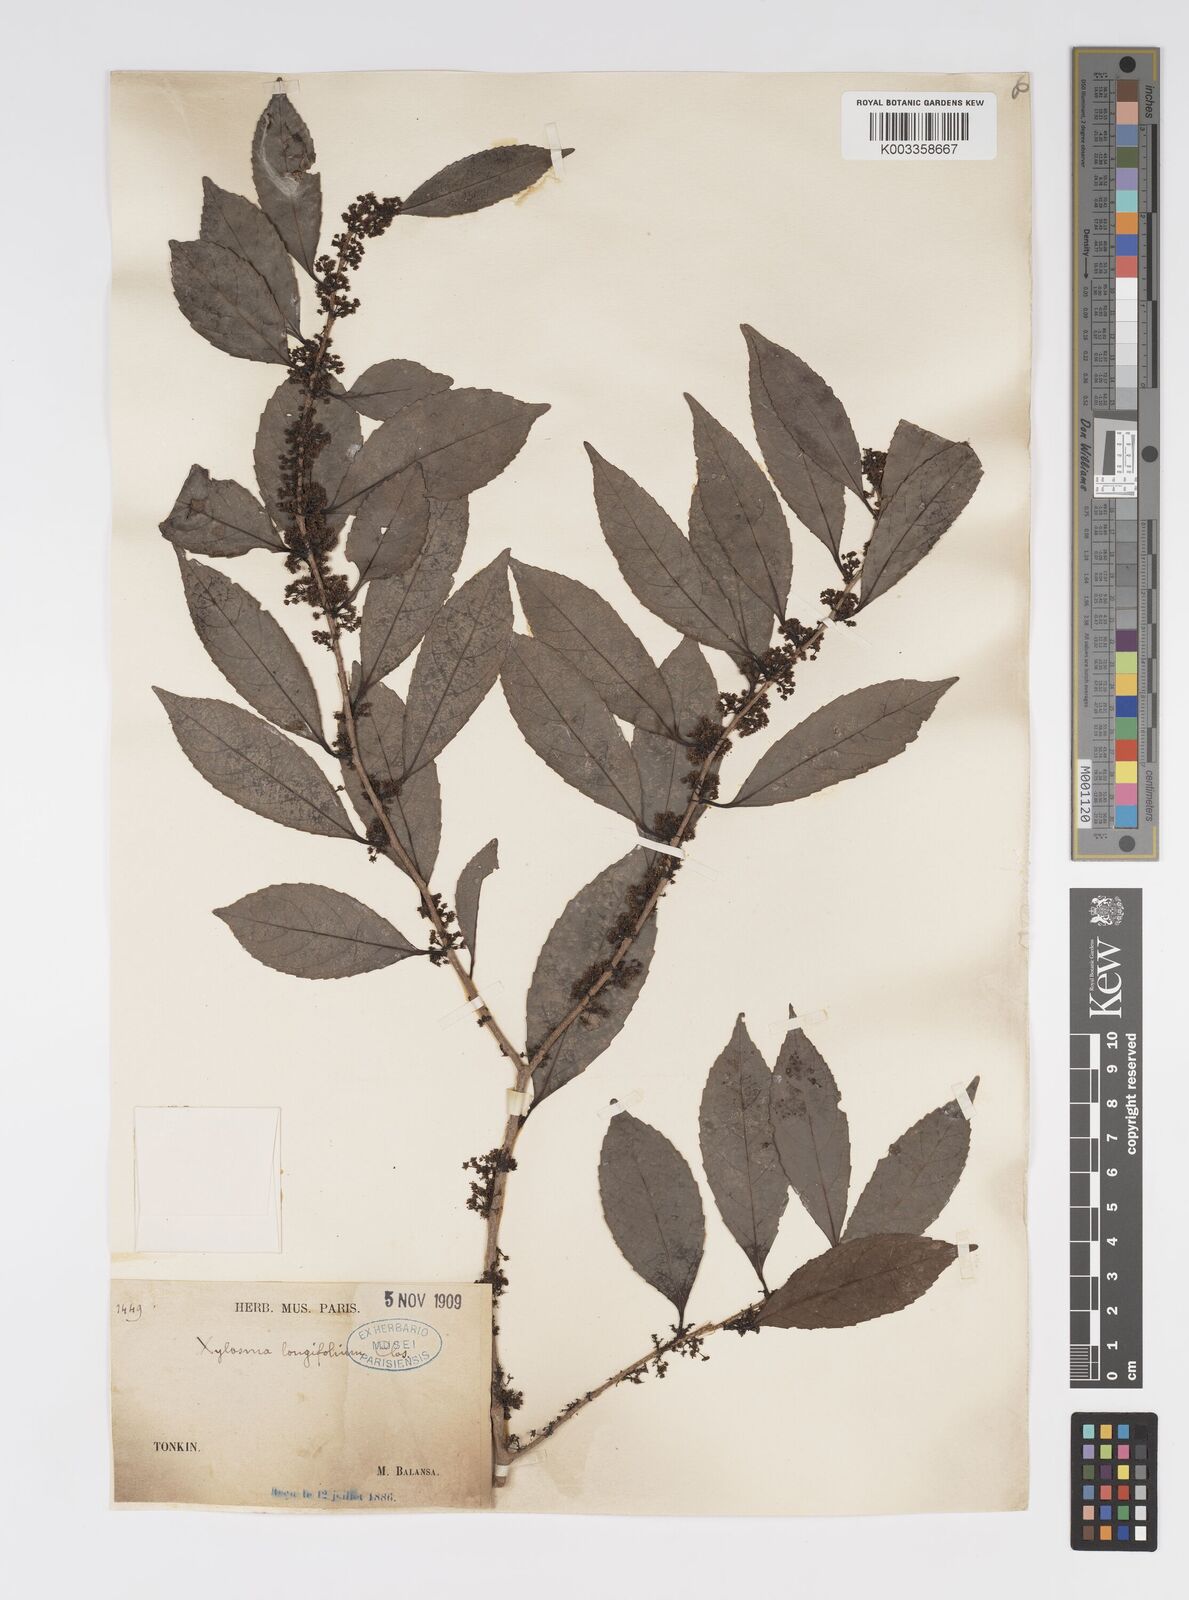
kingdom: Plantae
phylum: Tracheophyta
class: Magnoliopsida
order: Malpighiales
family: Salicaceae
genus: Xylosma
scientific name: Xylosma longifolia
